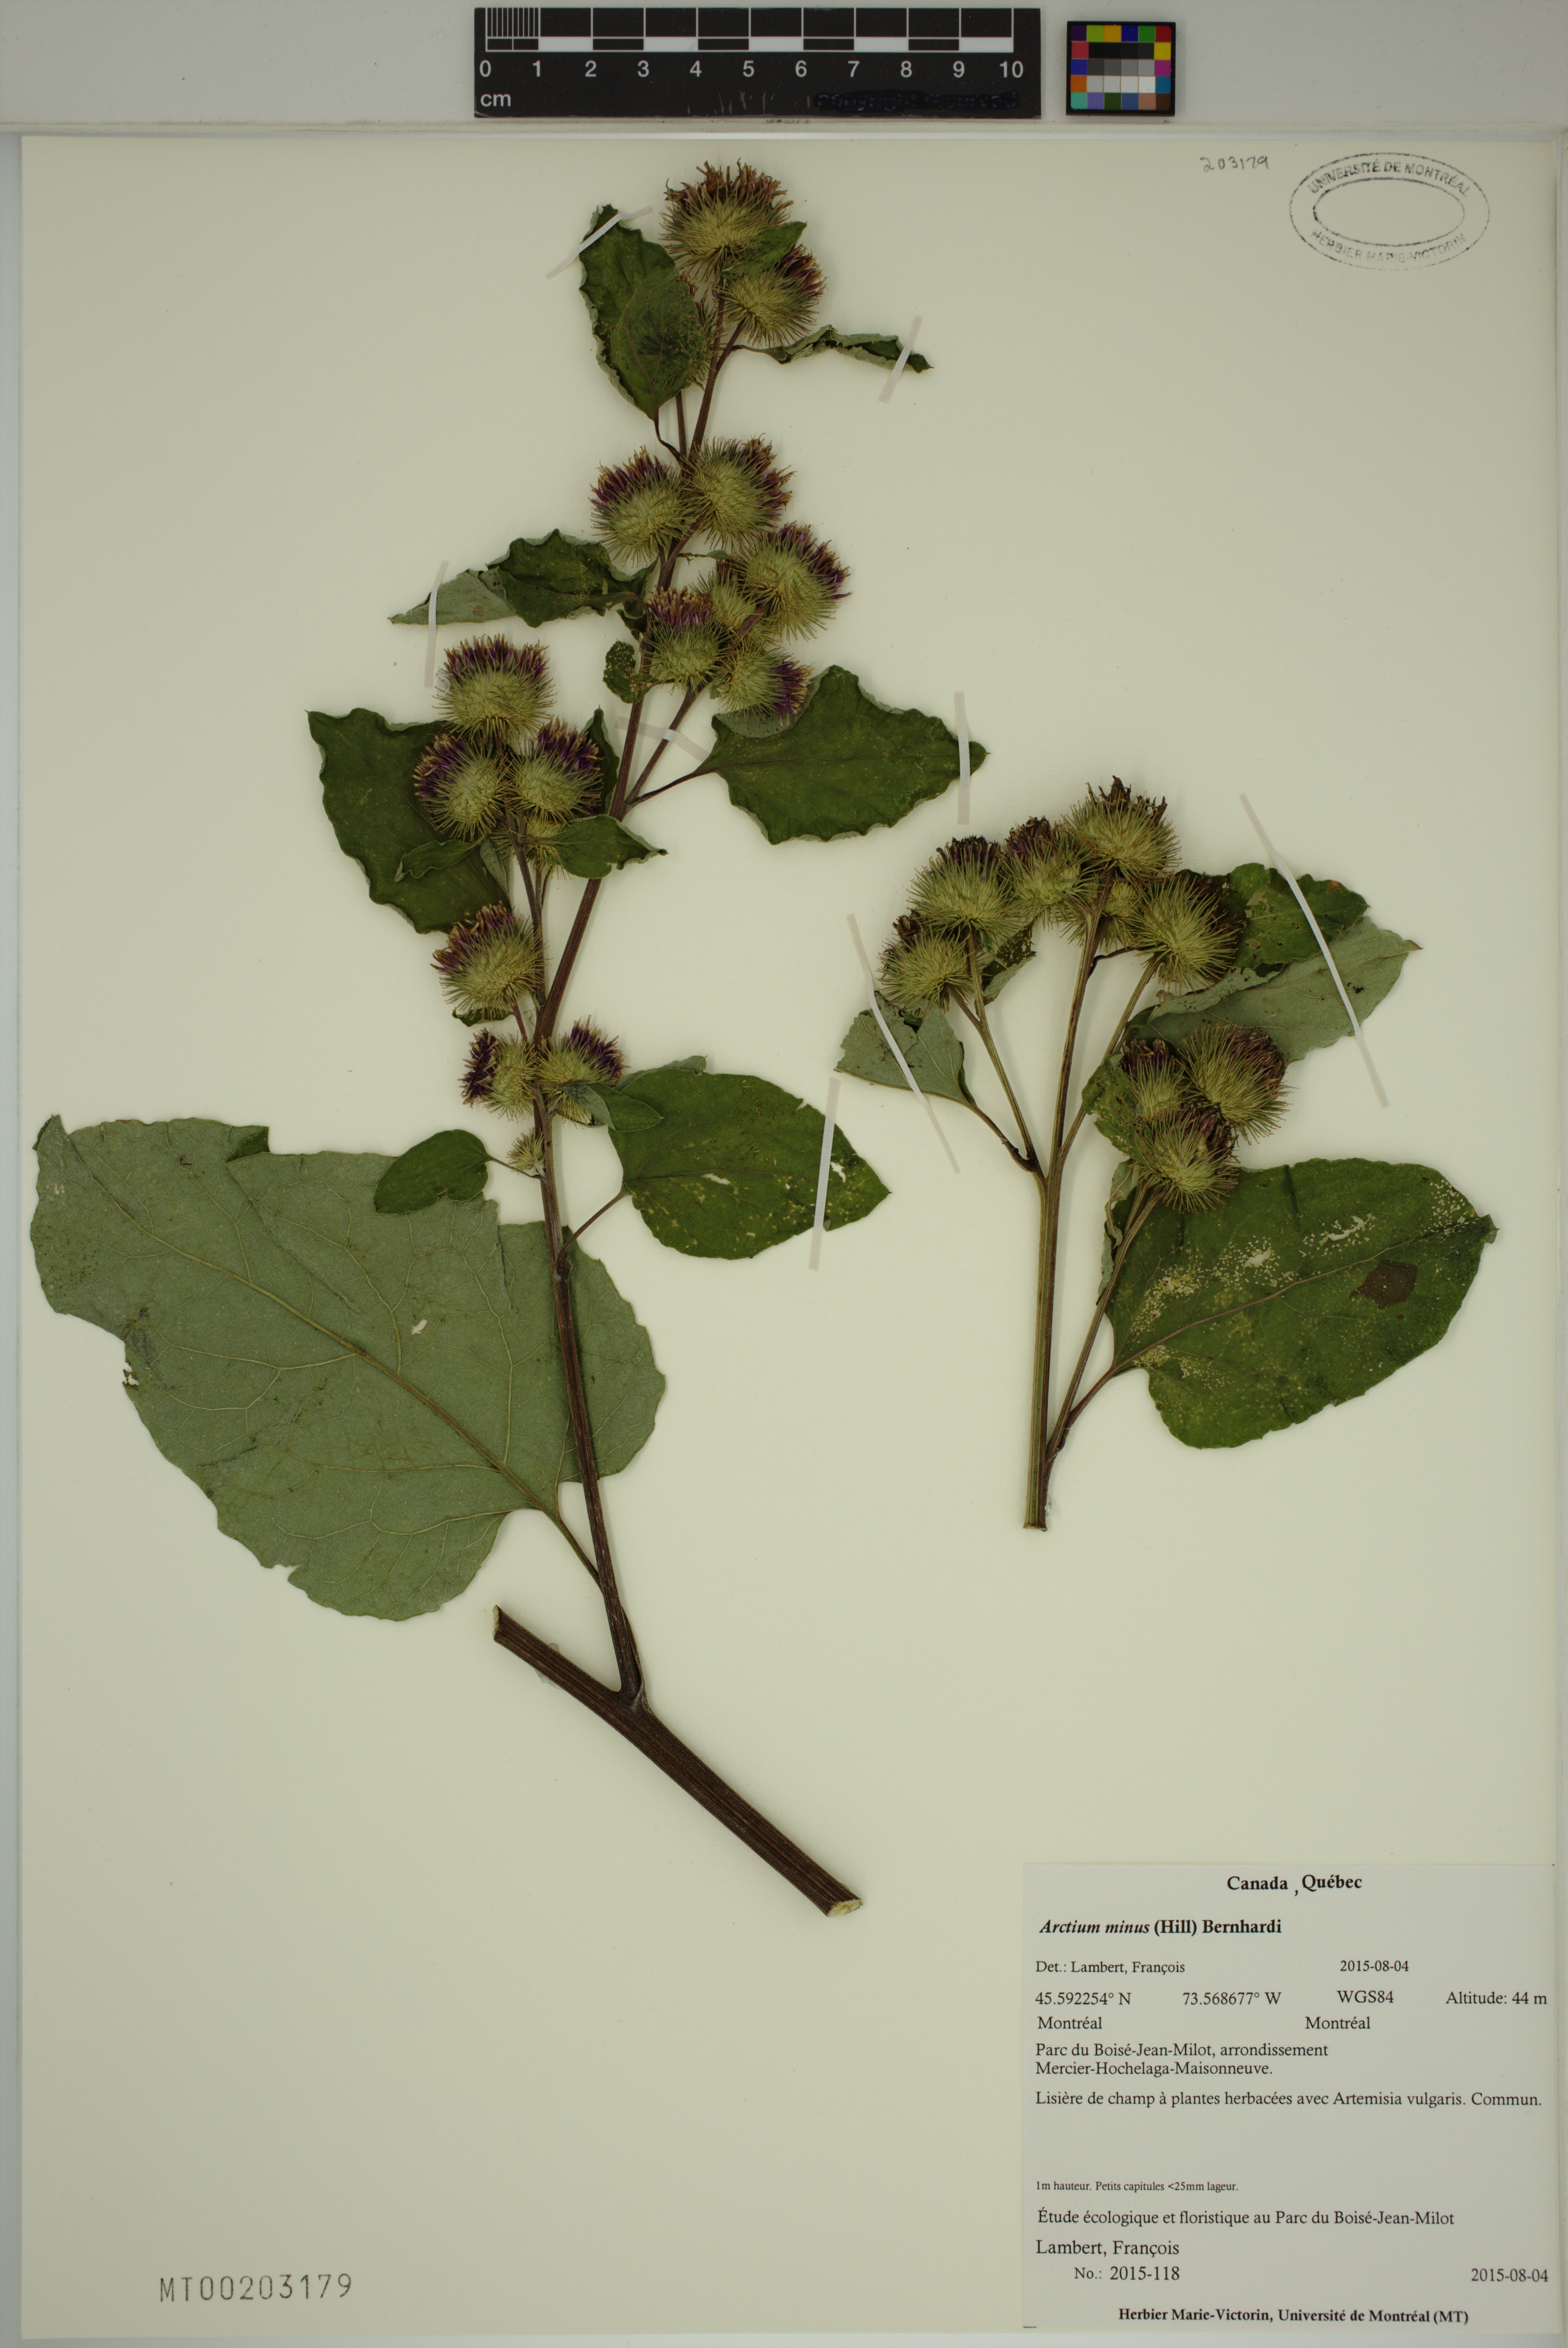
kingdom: Plantae
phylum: Tracheophyta
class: Magnoliopsida
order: Asterales
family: Asteraceae
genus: Arctium
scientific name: Arctium minus
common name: Lesser burdock
